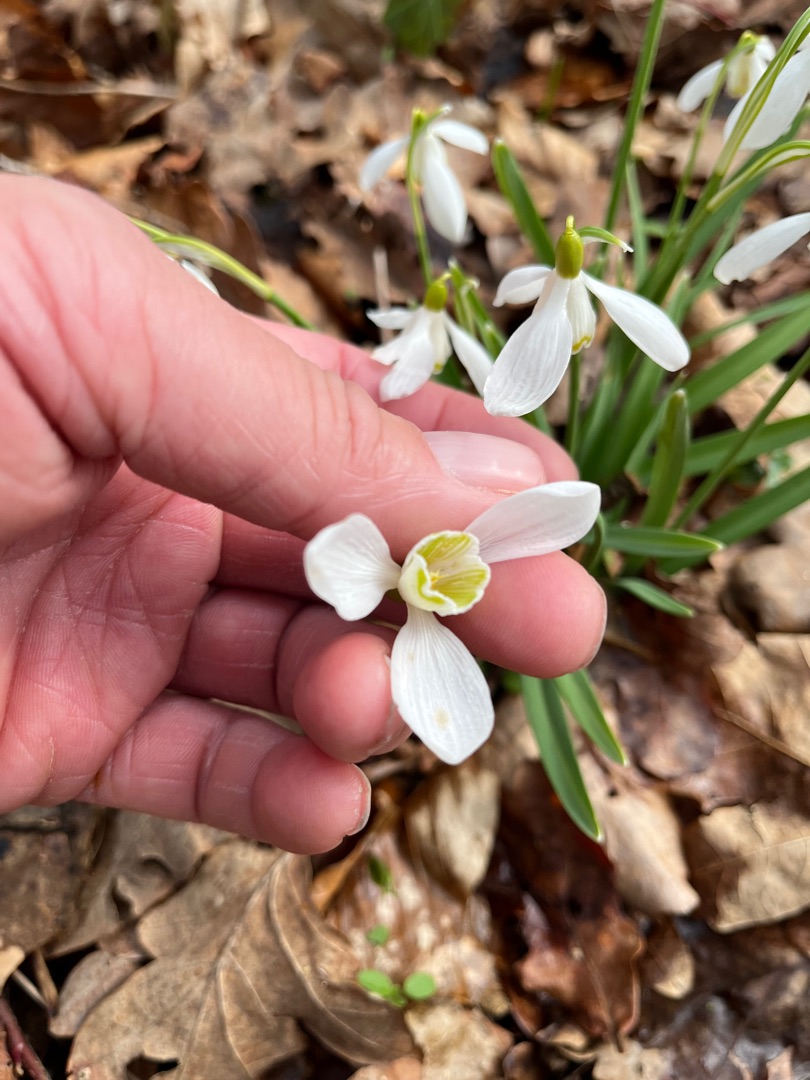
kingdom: Plantae
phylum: Tracheophyta
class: Liliopsida
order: Asparagales
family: Amaryllidaceae
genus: Galanthus
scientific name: Galanthus nivalis
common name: Vintergæk
